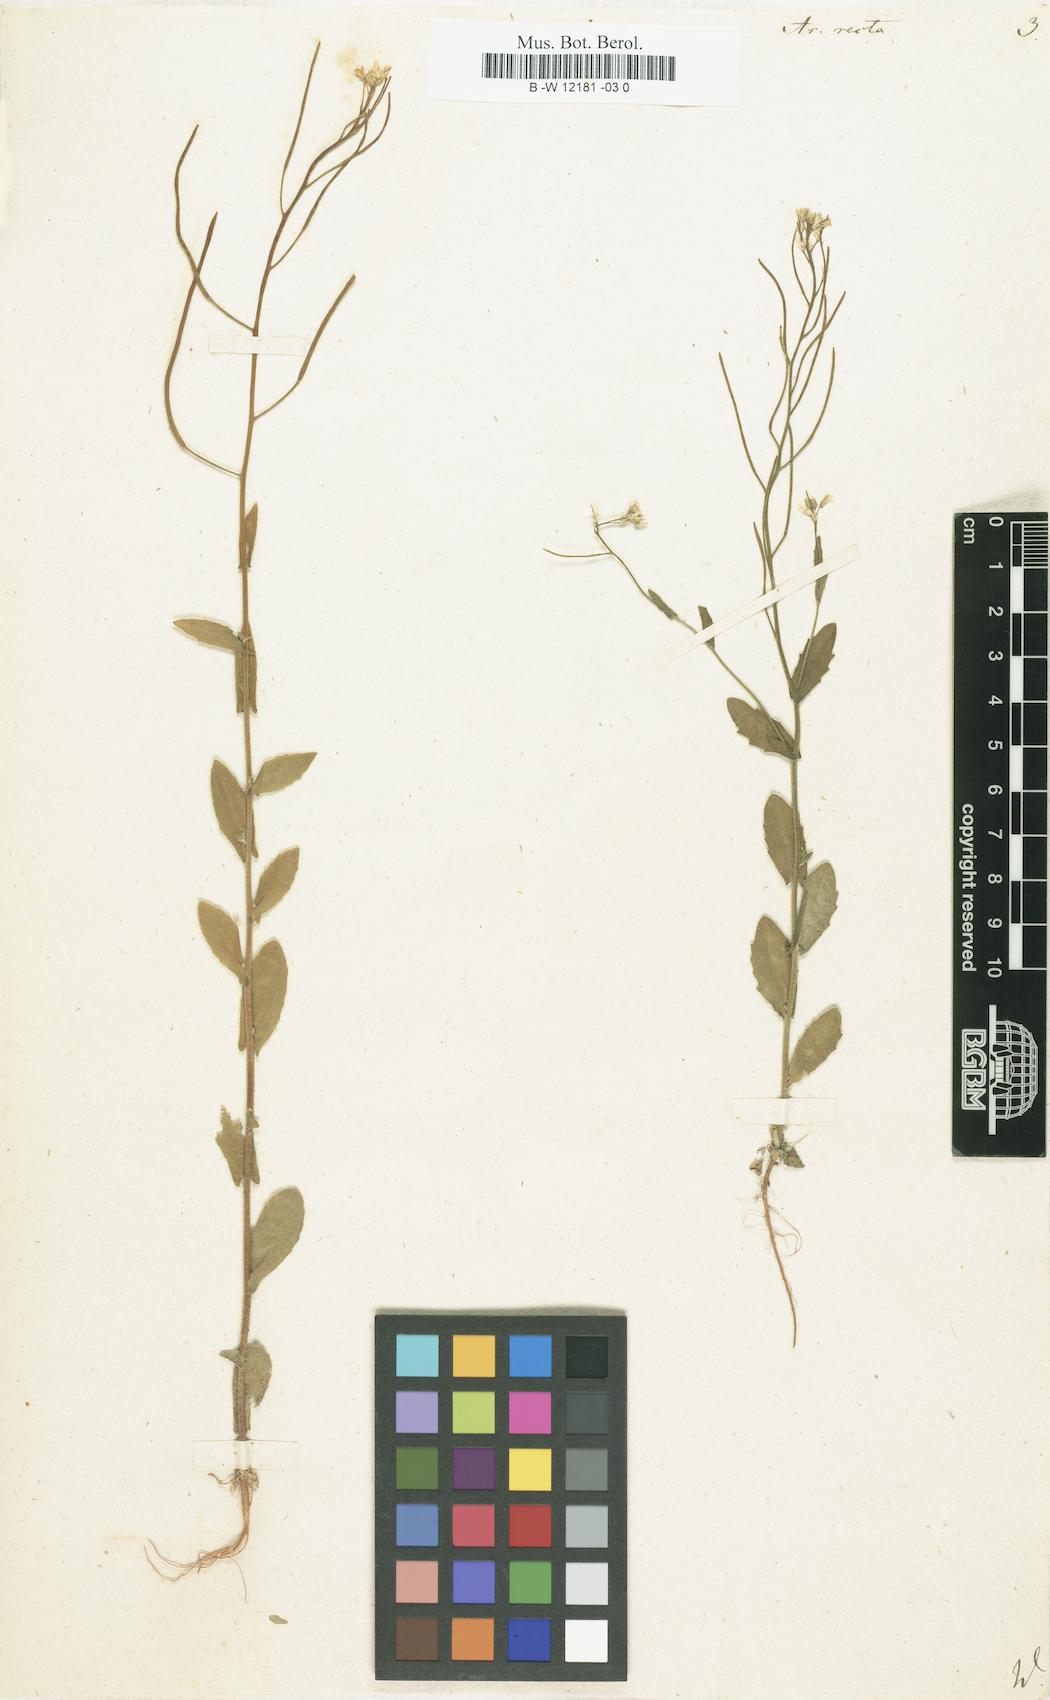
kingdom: Plantae
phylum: Tracheophyta
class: Magnoliopsida
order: Brassicales
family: Brassicaceae
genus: Arabis
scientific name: Arabis auriculata
